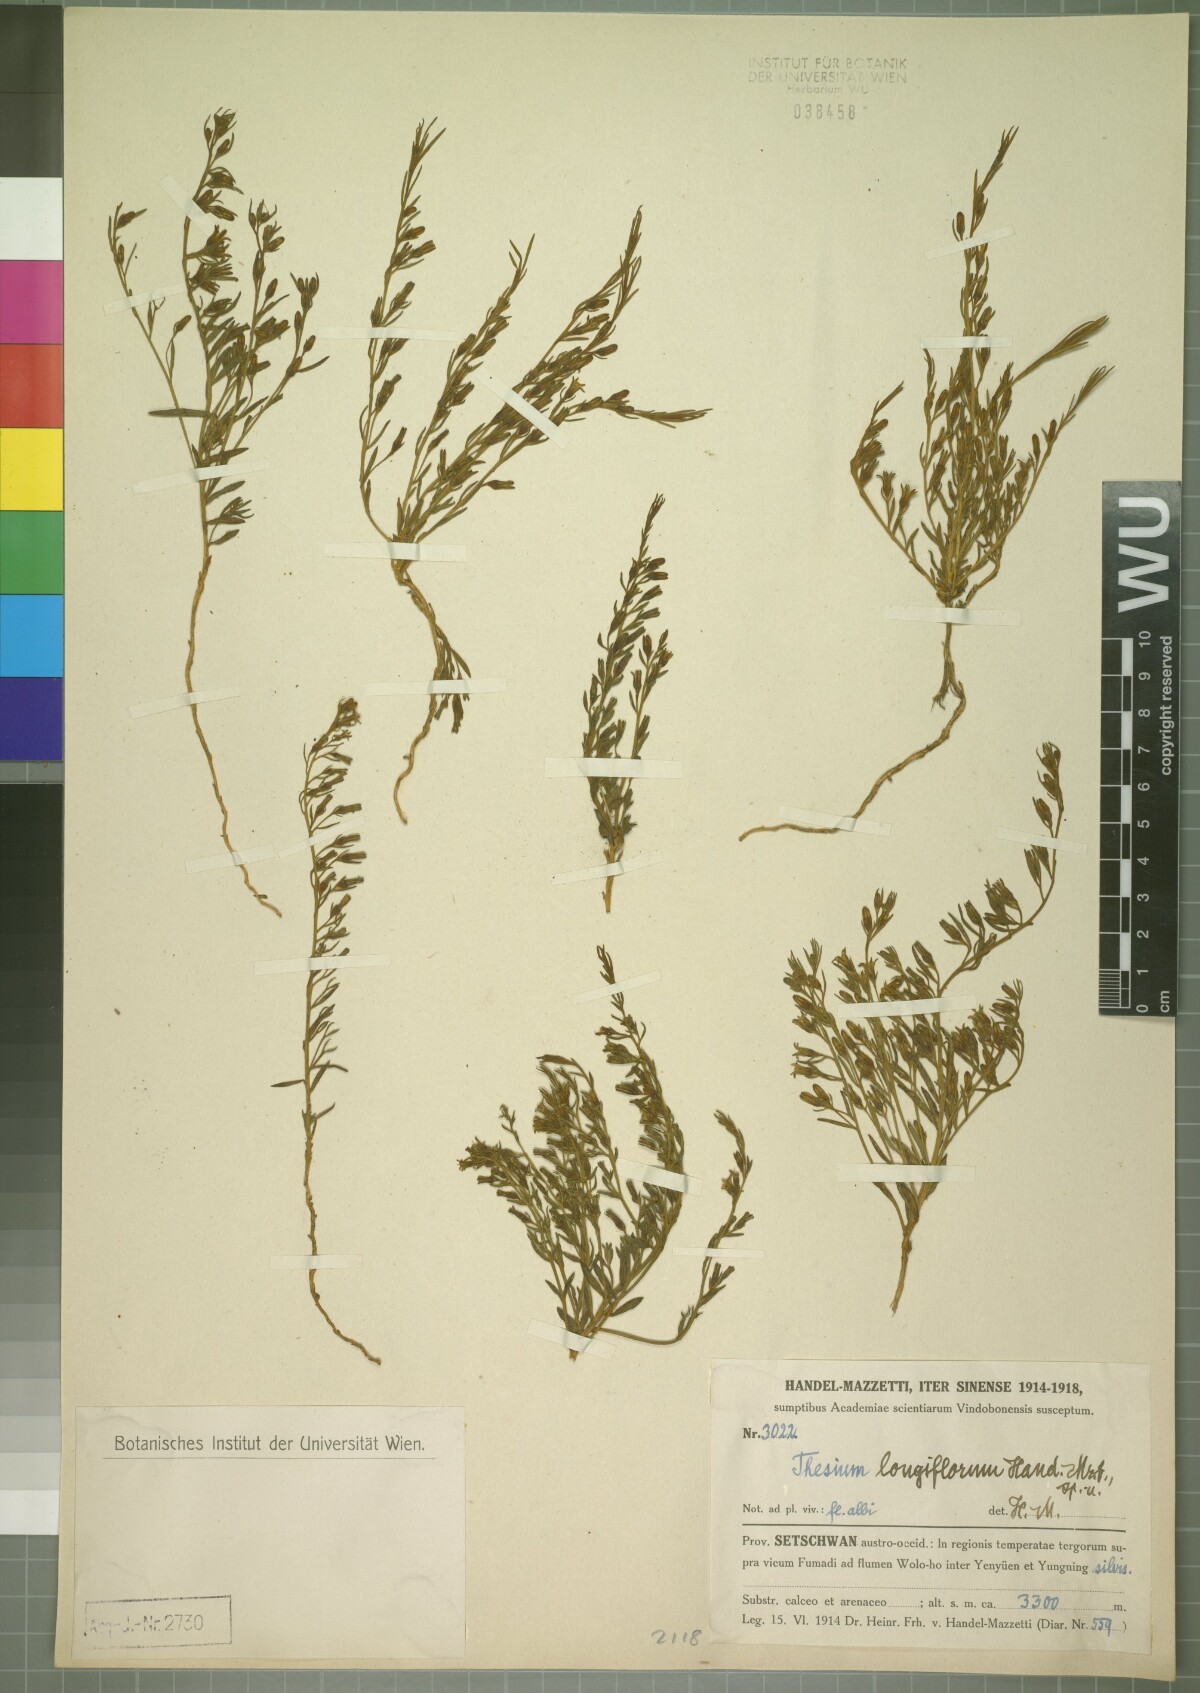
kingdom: Plantae
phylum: Tracheophyta
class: Magnoliopsida
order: Santalales
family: Thesiaceae
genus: Thesium
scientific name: Thesium longiflorum
